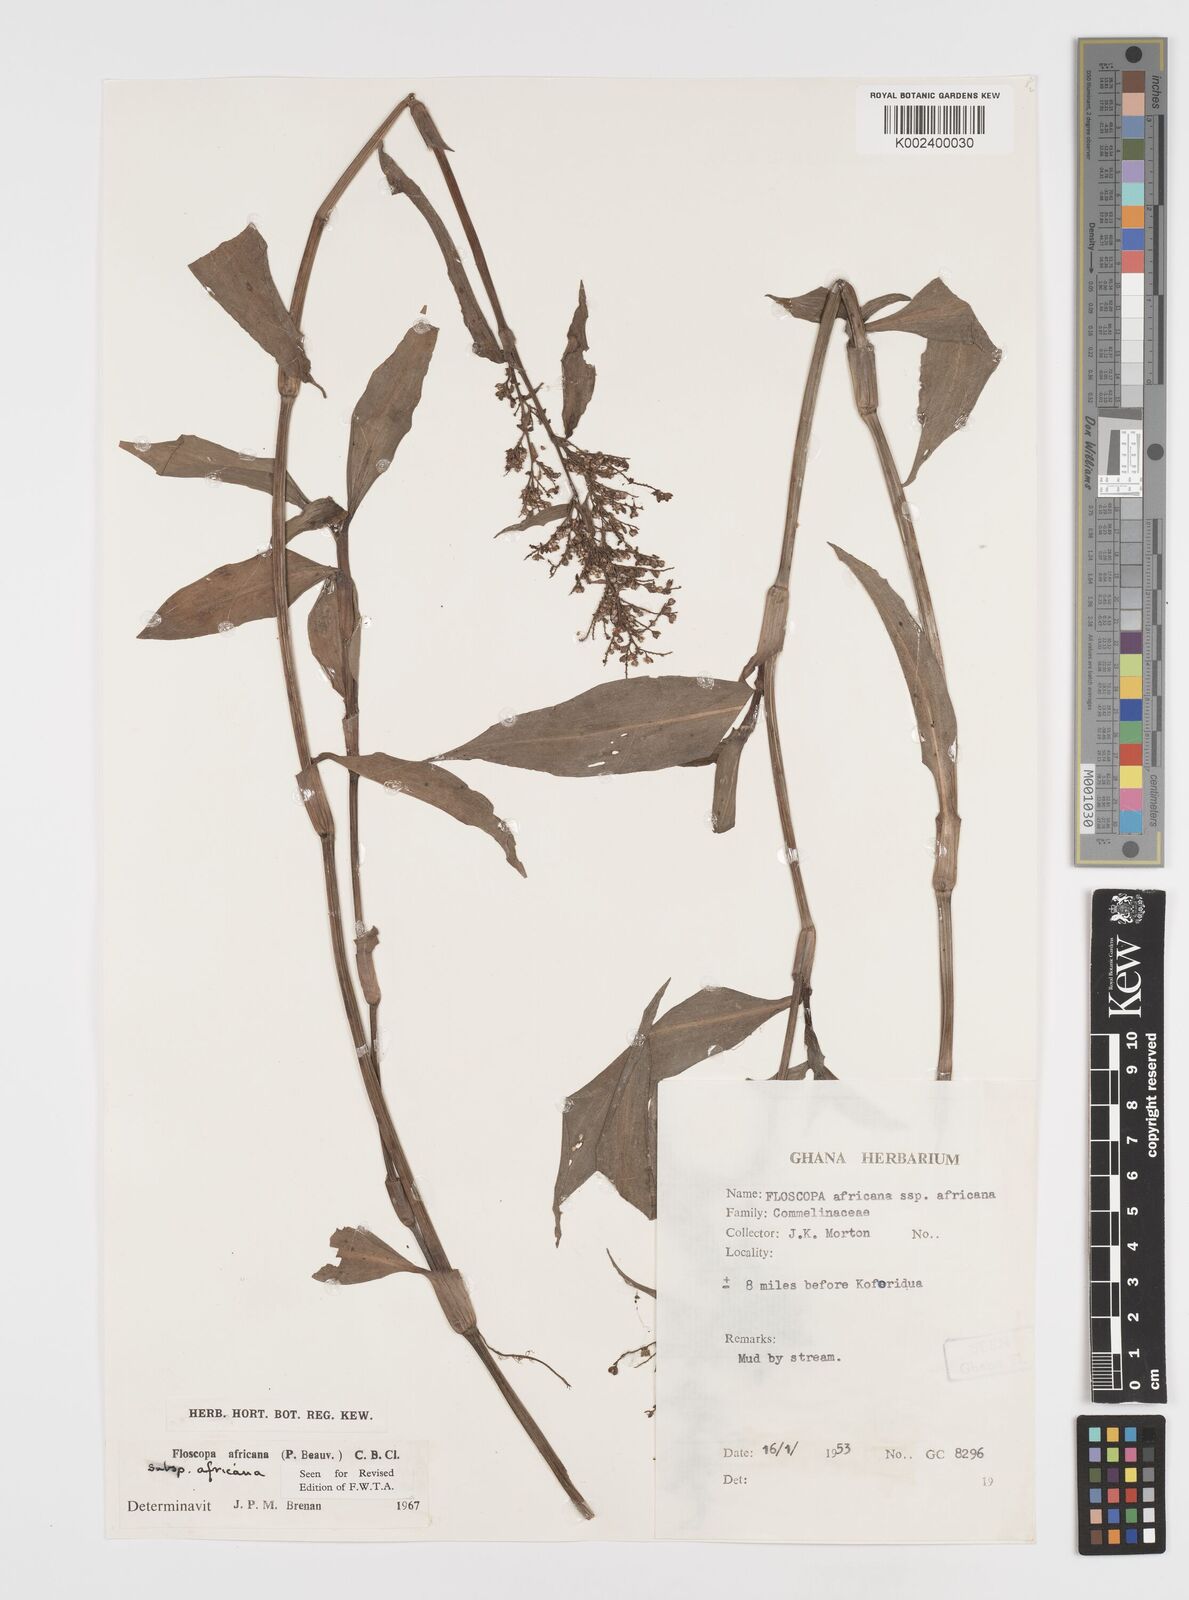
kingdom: Plantae
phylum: Tracheophyta
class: Liliopsida
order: Commelinales
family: Commelinaceae
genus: Floscopa
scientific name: Floscopa africana
